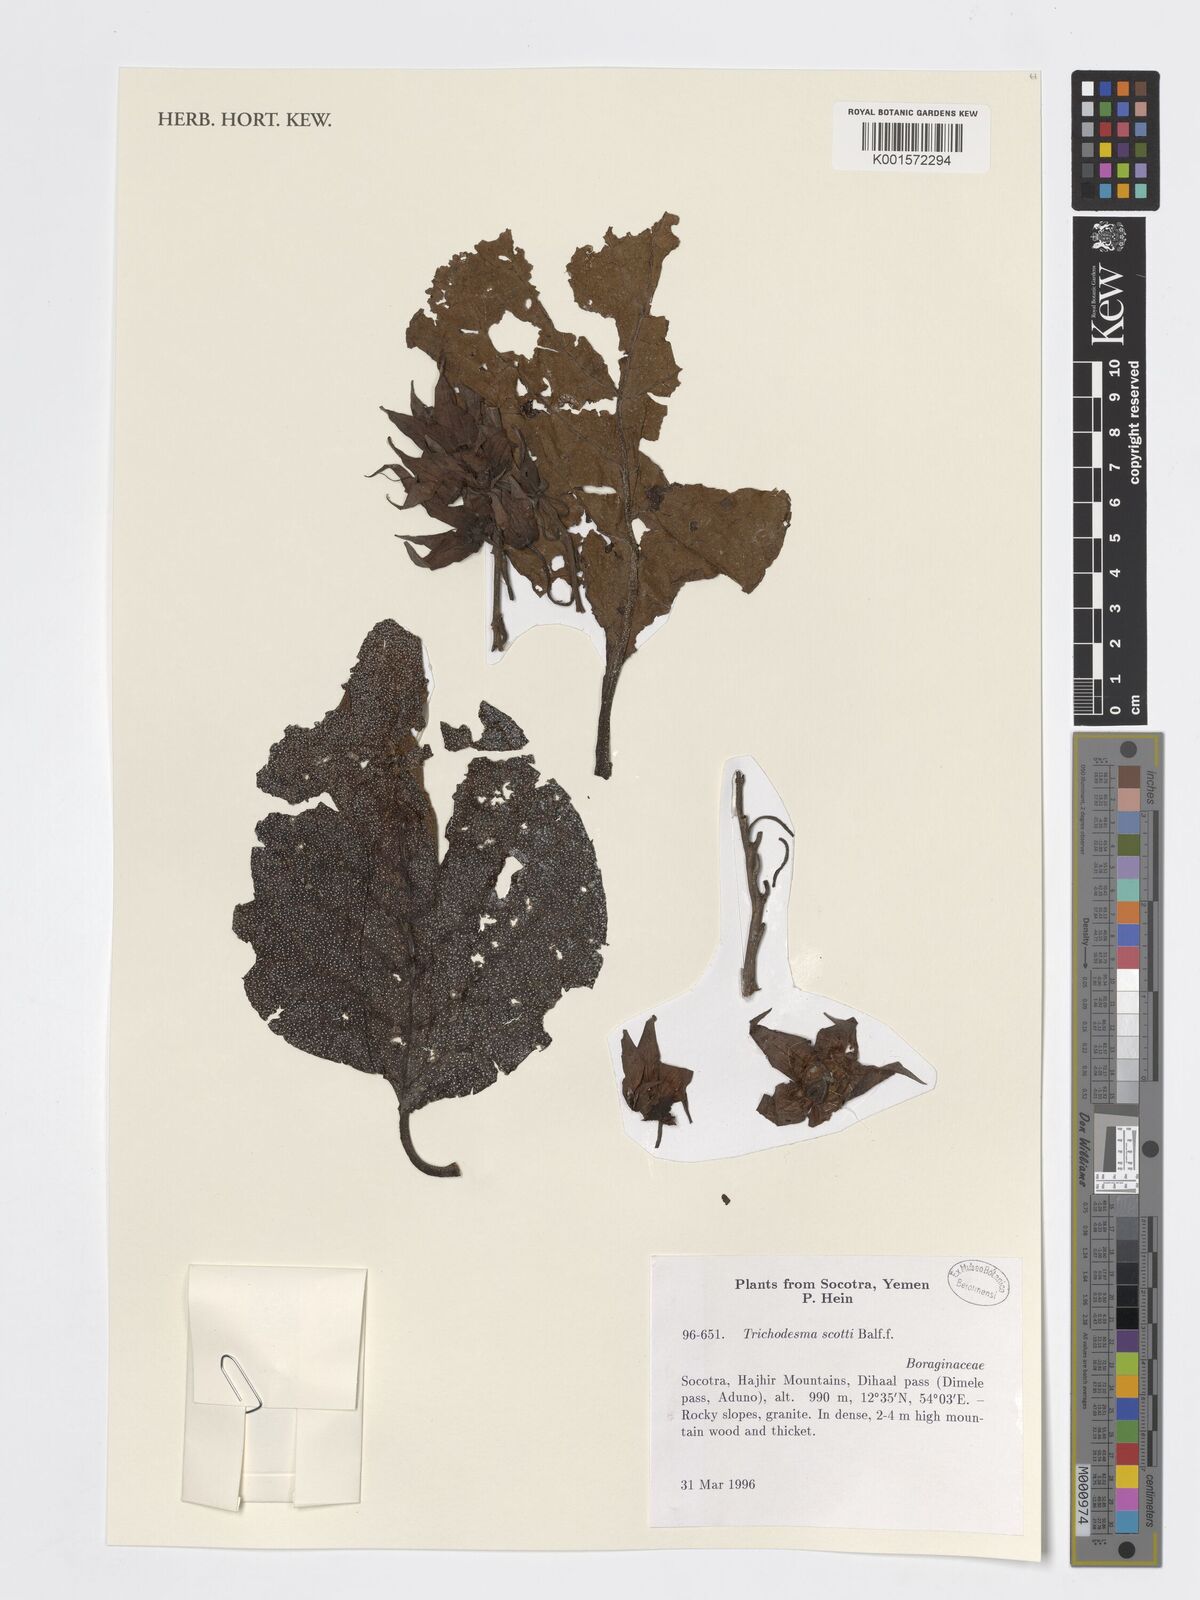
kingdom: Plantae
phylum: Tracheophyta
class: Magnoliopsida
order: Boraginales
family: Boraginaceae
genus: Trichodesma
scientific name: Trichodesma scottii
